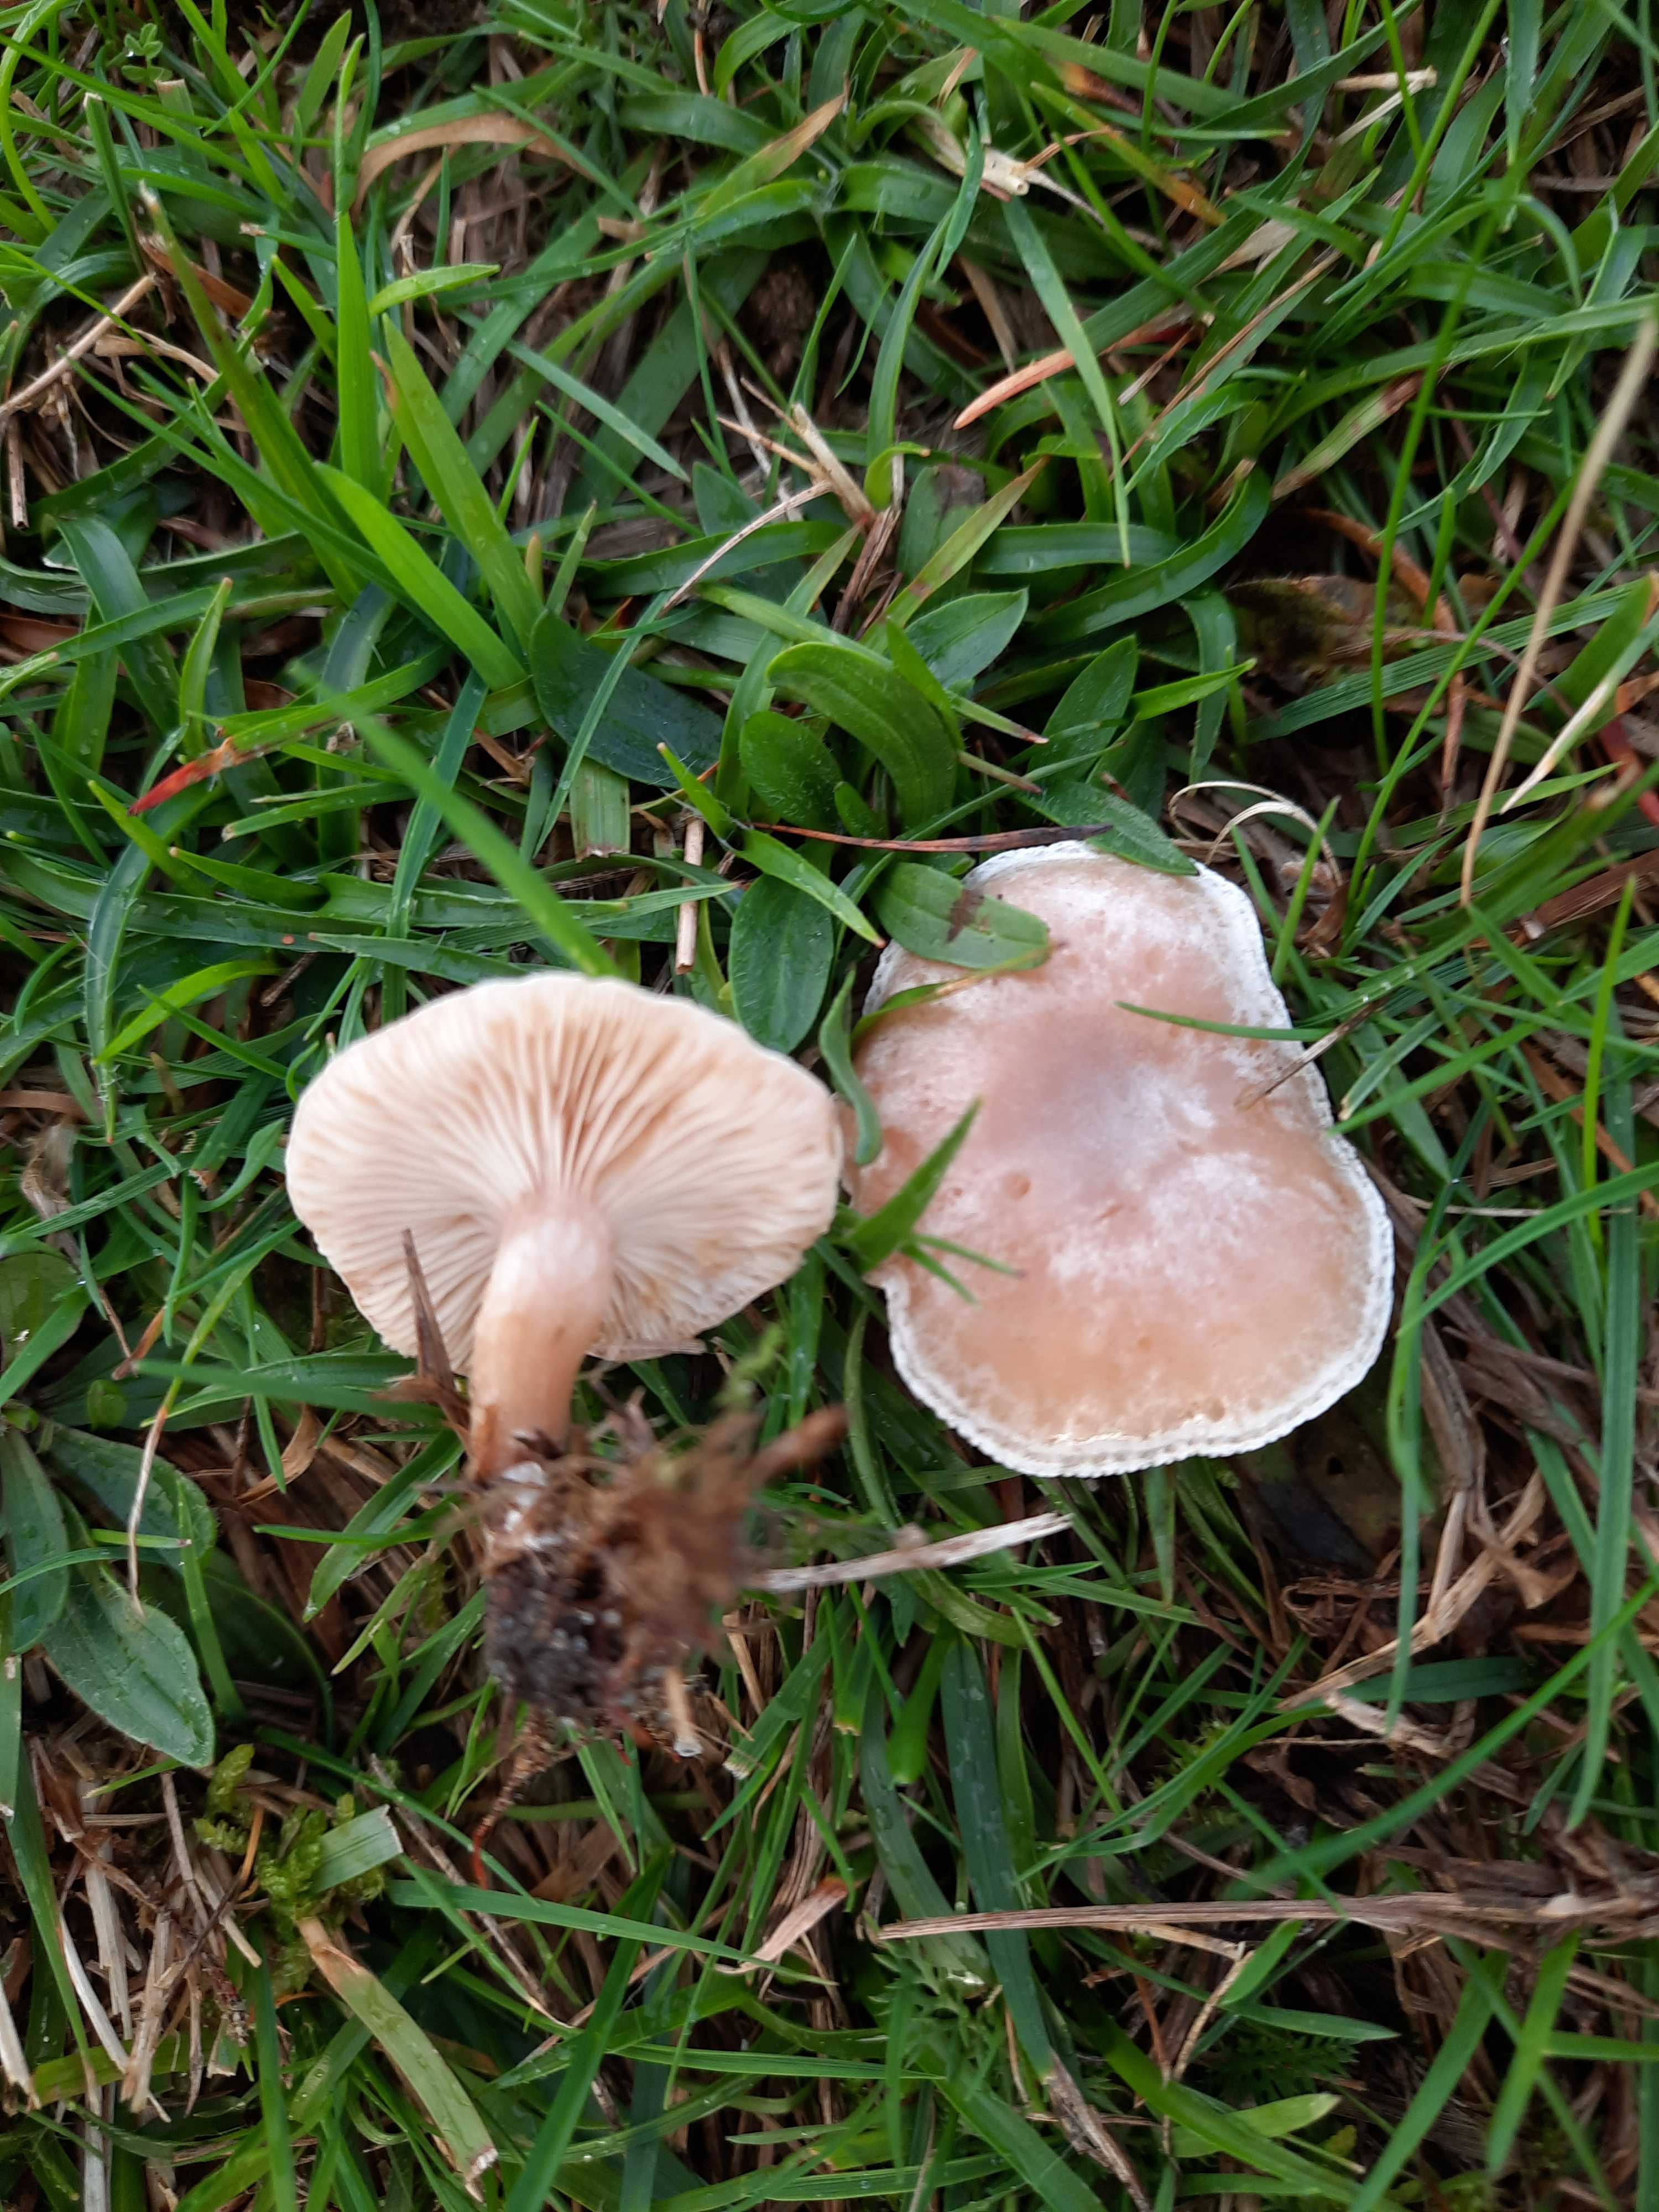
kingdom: Fungi
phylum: Basidiomycota
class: Agaricomycetes
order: Agaricales
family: Tricholomataceae
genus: Clitocybe
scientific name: Clitocybe rivulosa
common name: eng-tragthat
